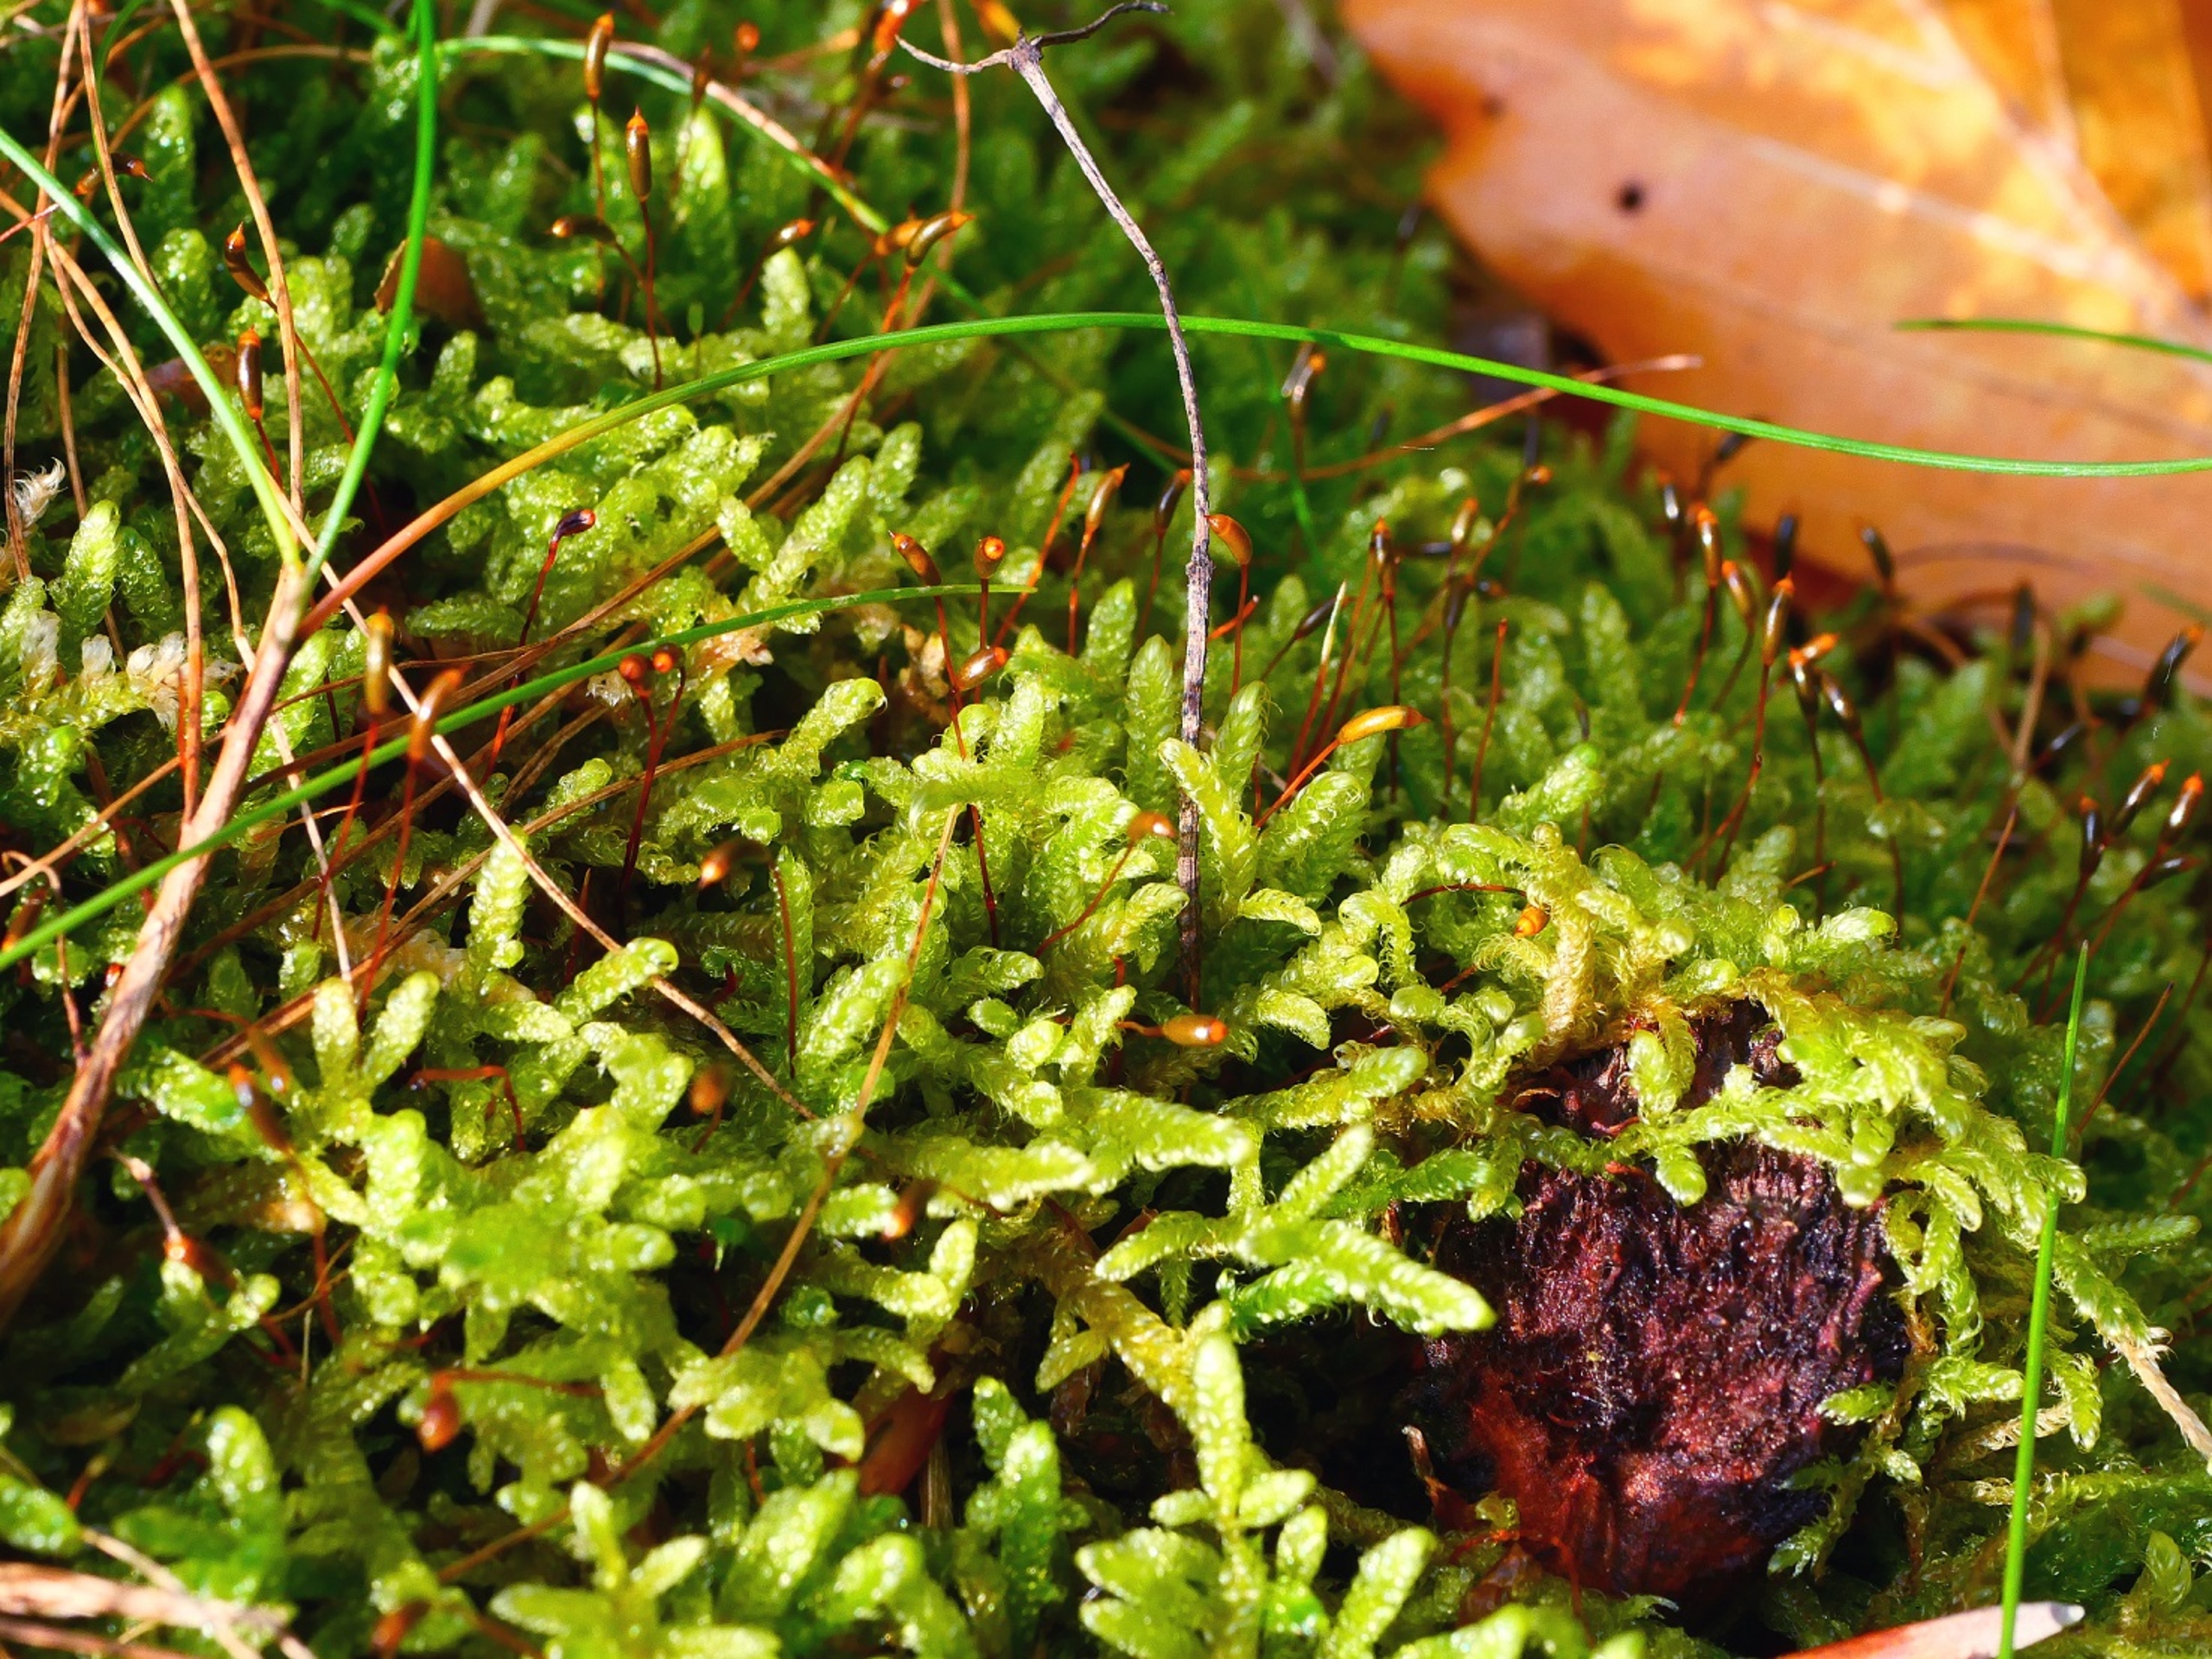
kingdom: Plantae
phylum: Bryophyta
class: Bryopsida
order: Hypnales
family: Hypnaceae
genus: Hypnum
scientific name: Hypnum cupressiforme
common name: Almindelig cypresmos
